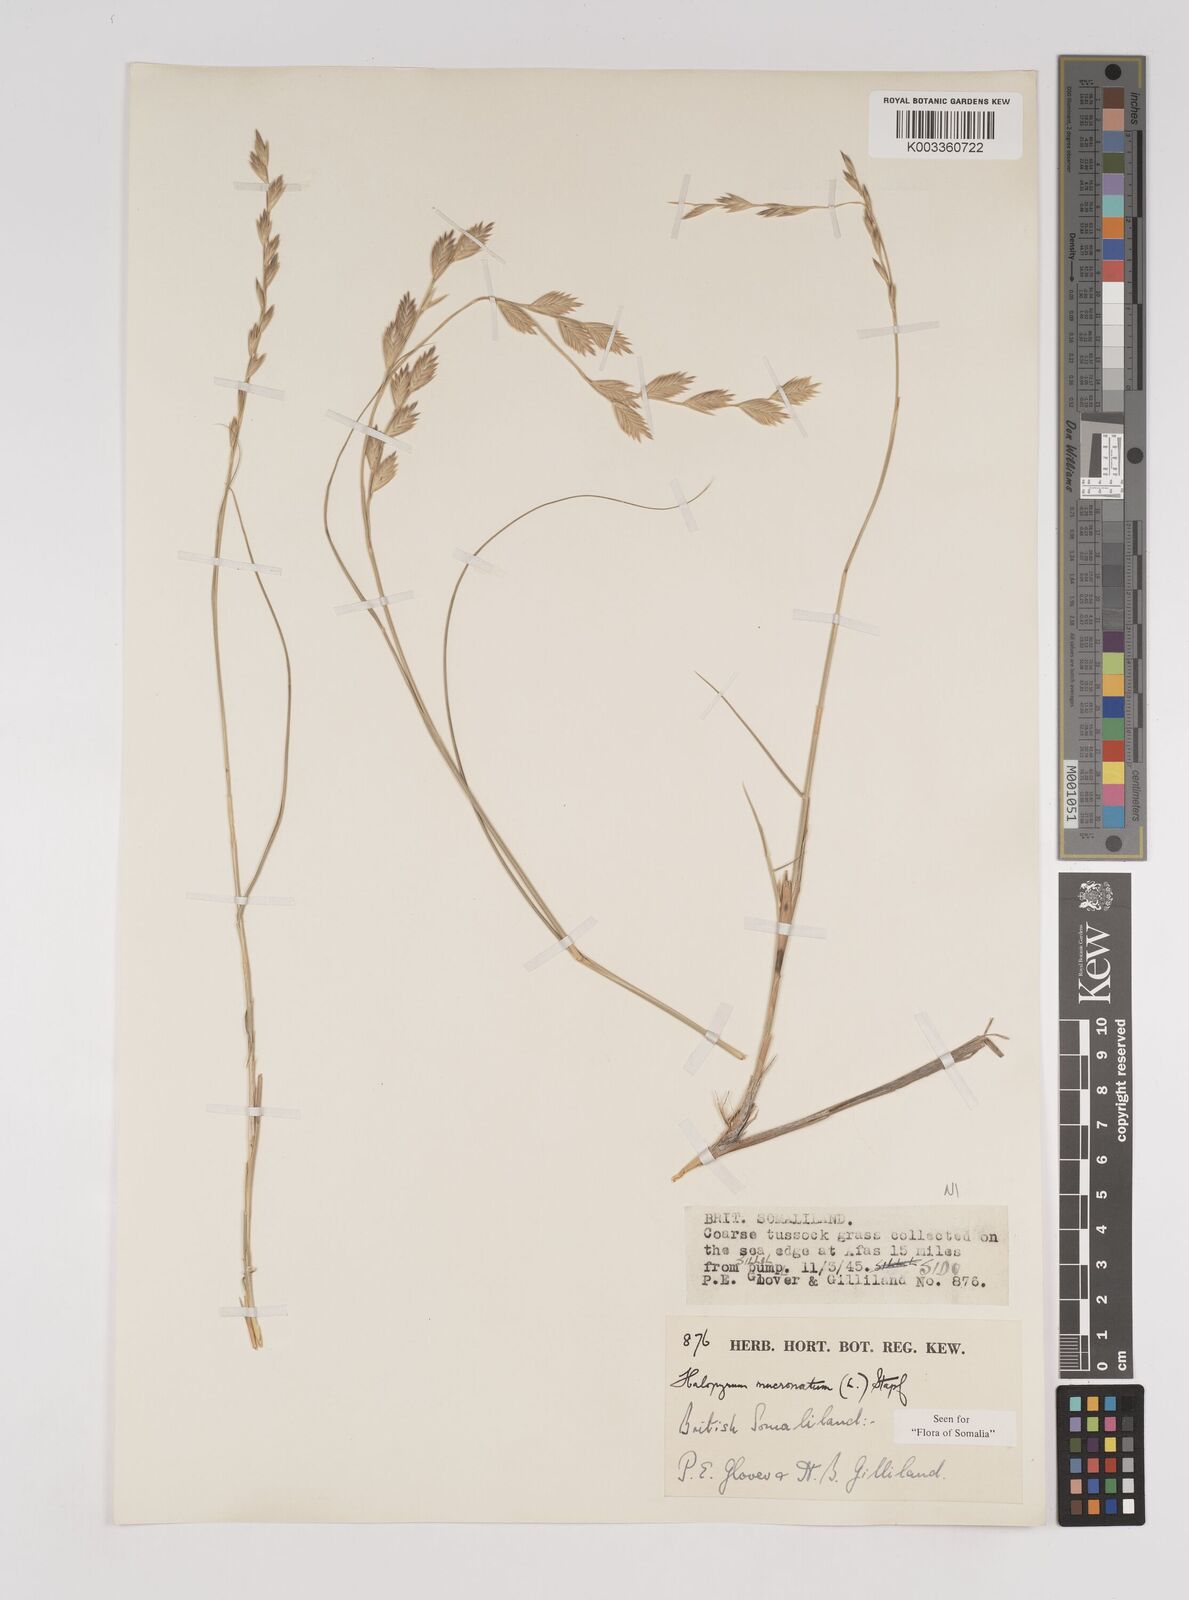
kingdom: Plantae
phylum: Tracheophyta
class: Liliopsida
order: Poales
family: Poaceae
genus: Halopyrum
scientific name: Halopyrum mucronatum
